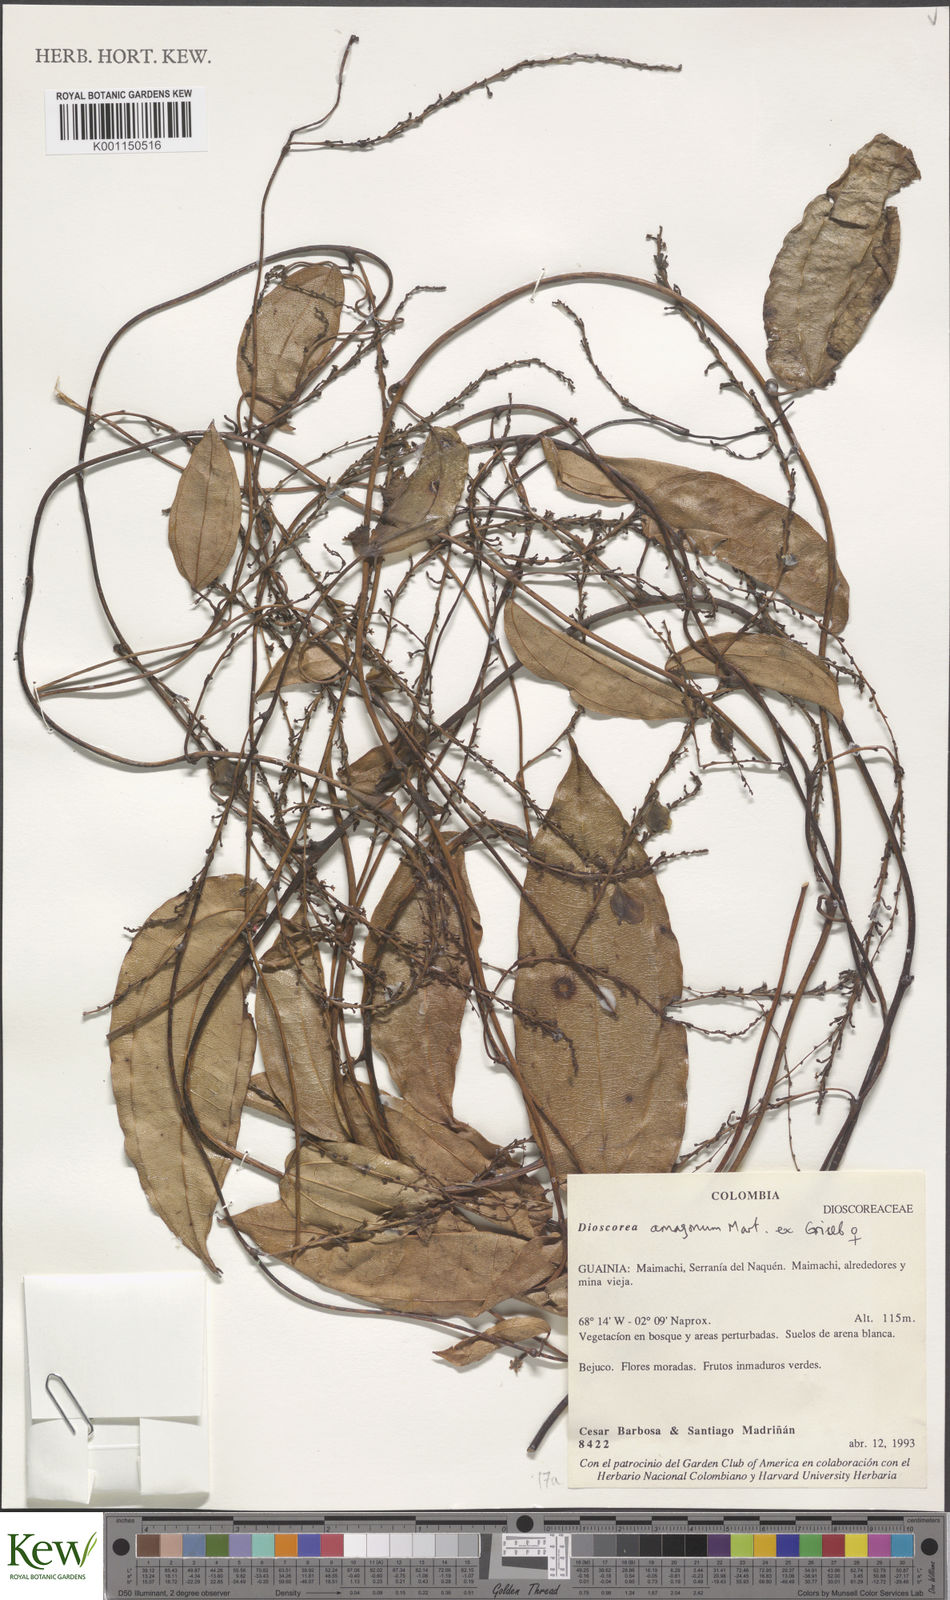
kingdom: Plantae
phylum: Tracheophyta
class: Liliopsida
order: Dioscoreales
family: Dioscoreaceae
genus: Dioscorea
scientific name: Dioscorea amazonum
